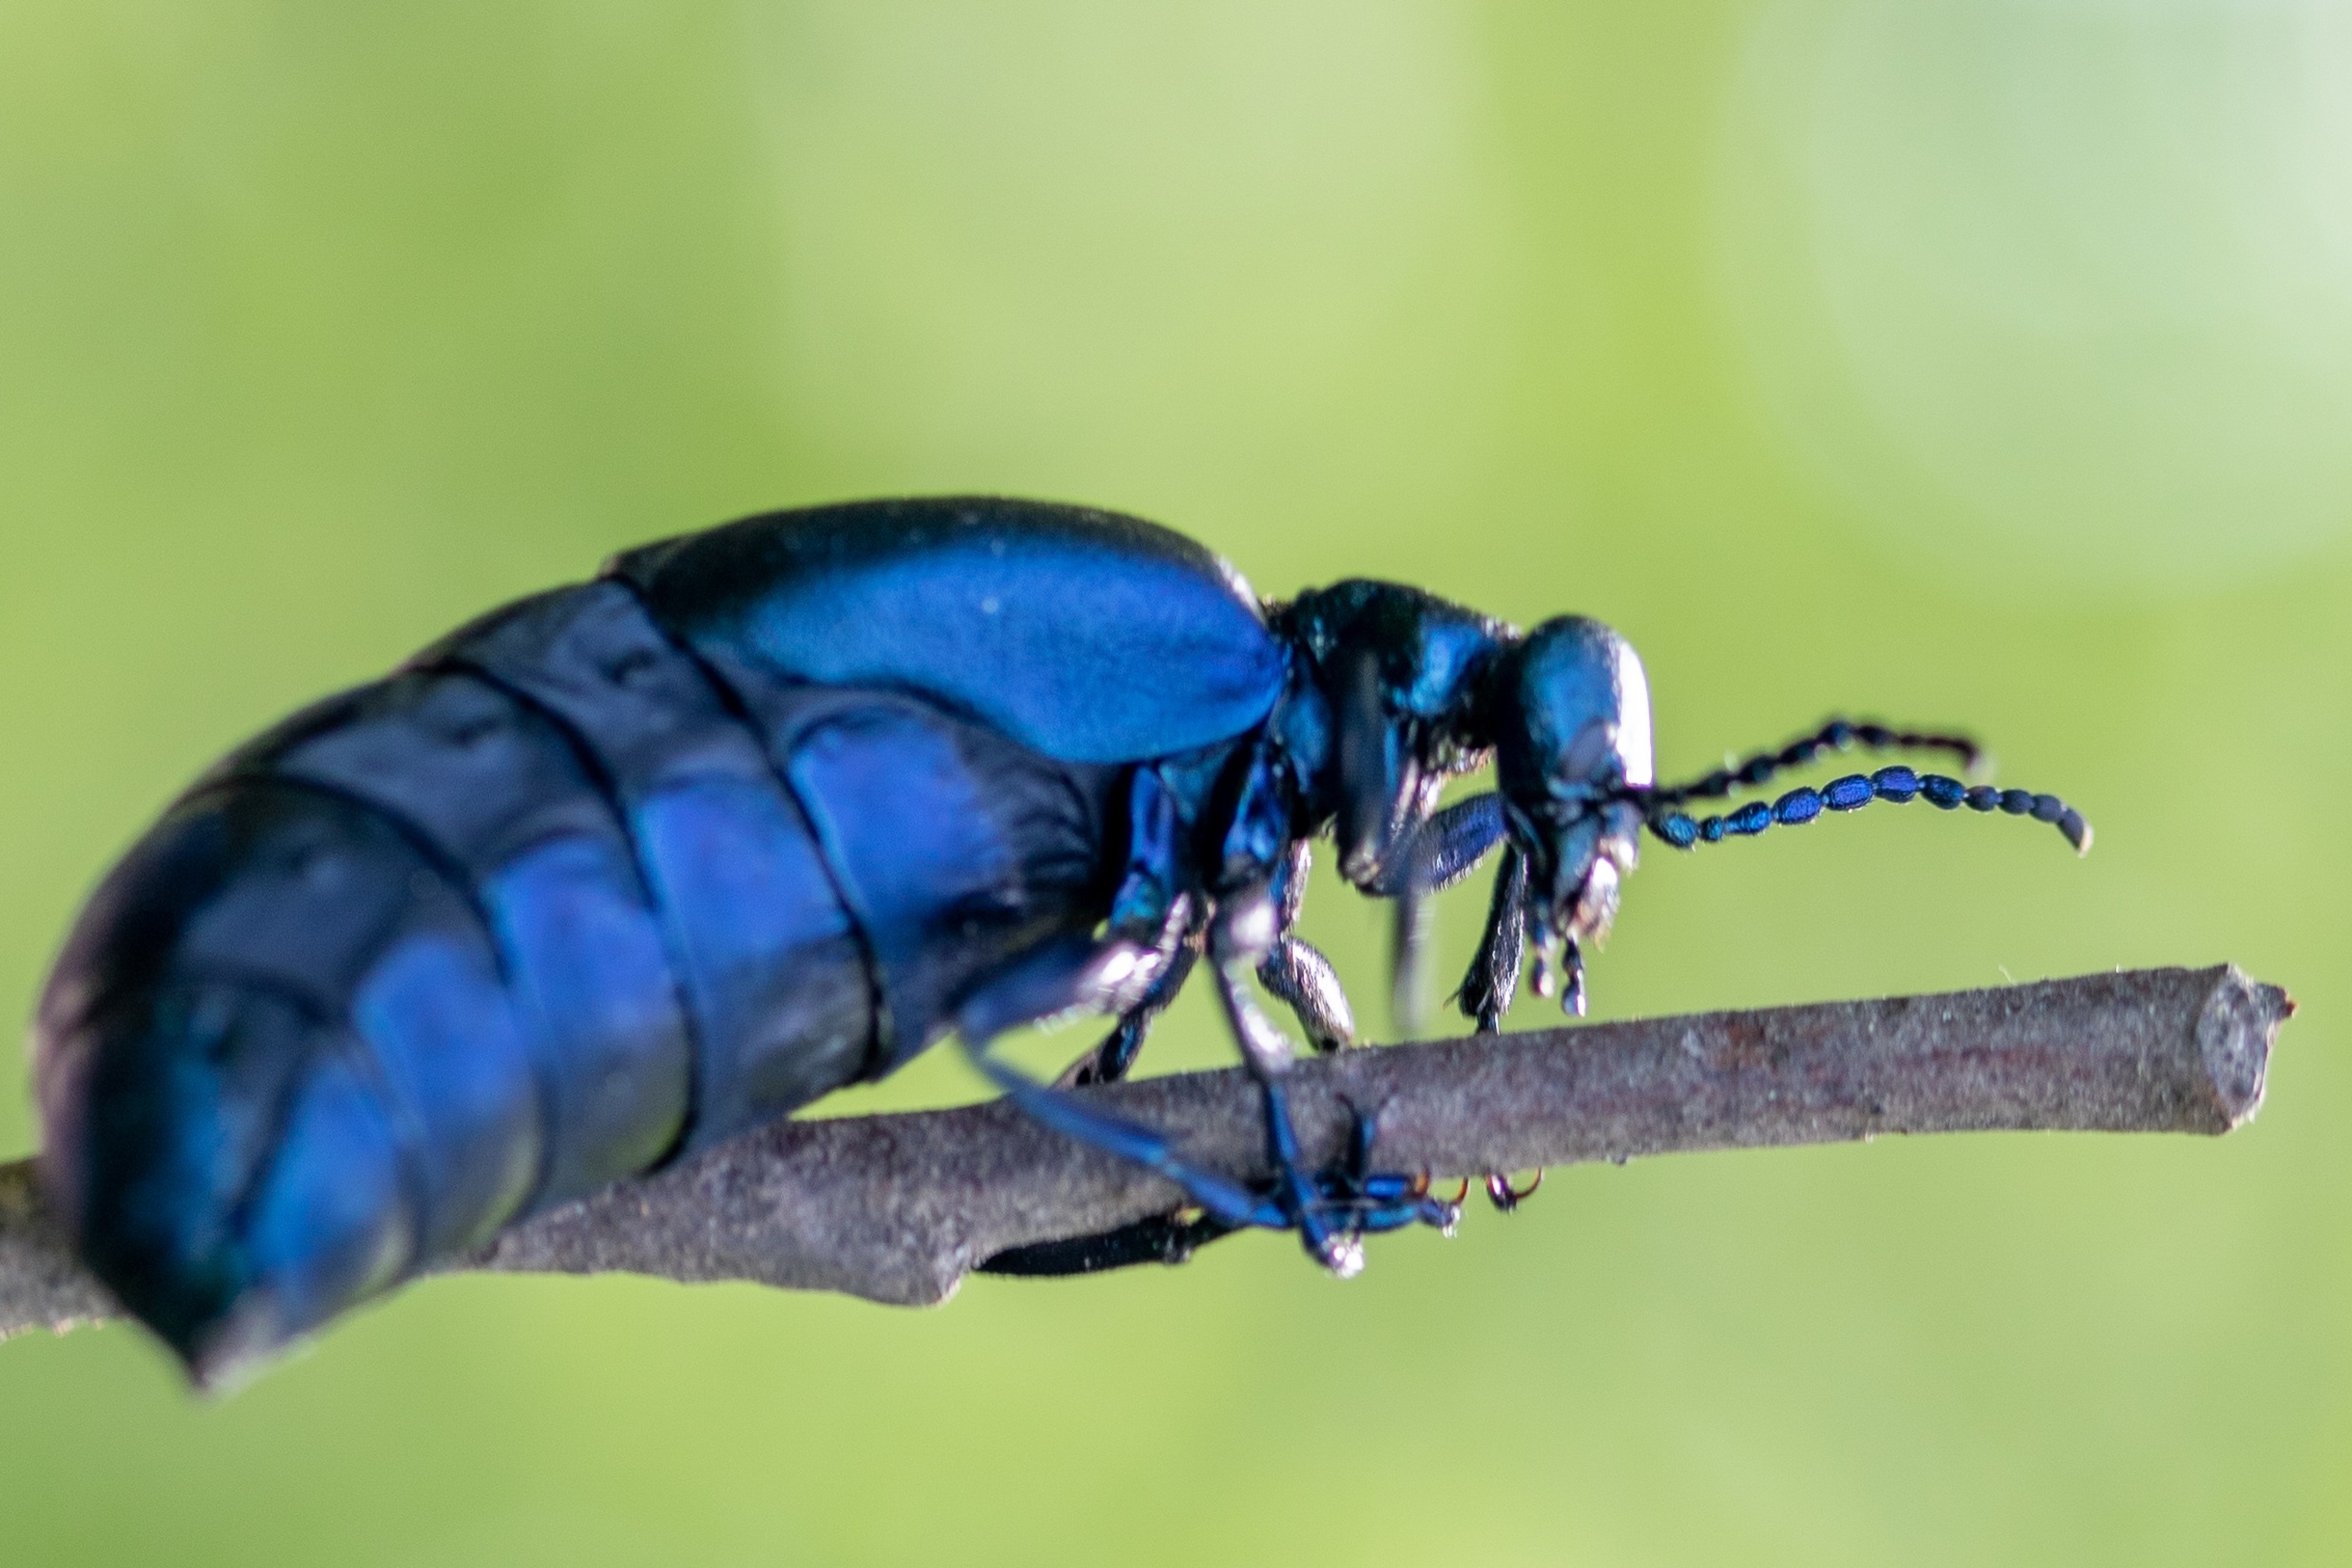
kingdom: Animalia
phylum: Arthropoda
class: Insecta
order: Coleoptera
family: Meloidae
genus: Meloe
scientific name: Meloe violaceus
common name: Blå oliebille
